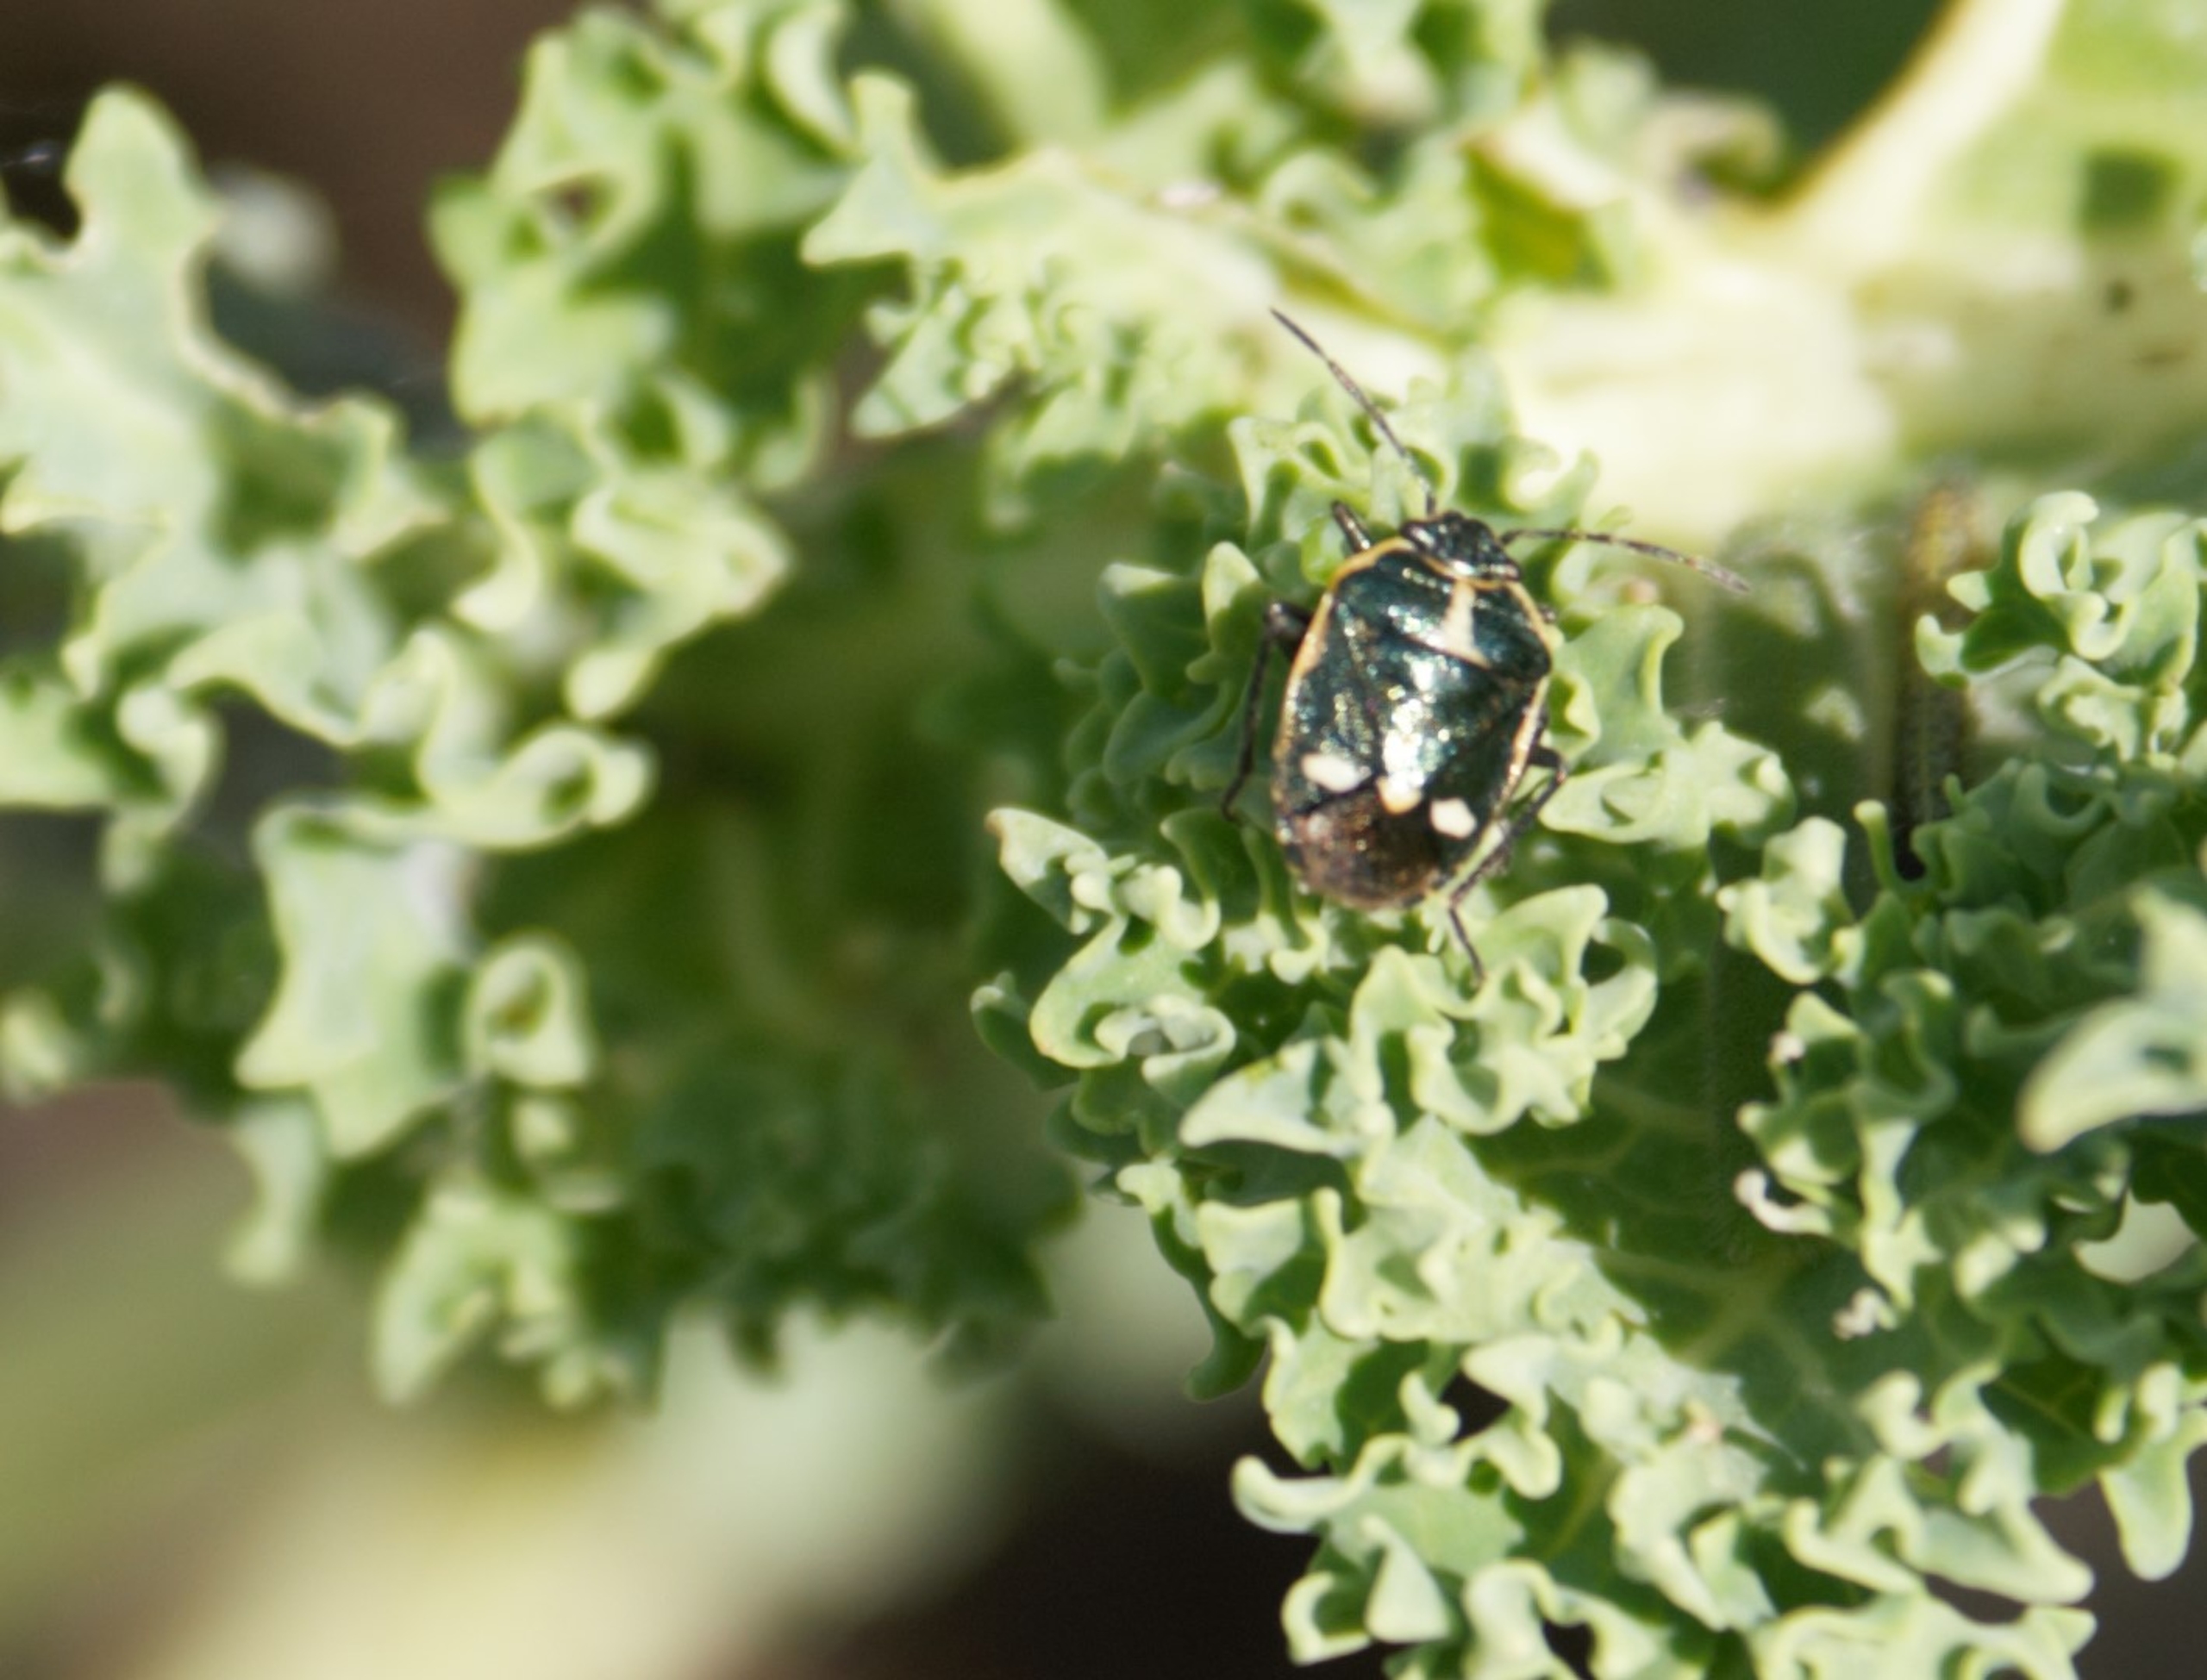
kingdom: Animalia
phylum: Arthropoda
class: Insecta
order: Hemiptera
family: Pentatomidae
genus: Eurydema
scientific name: Eurydema oleracea
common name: Almindelig kåltæge
